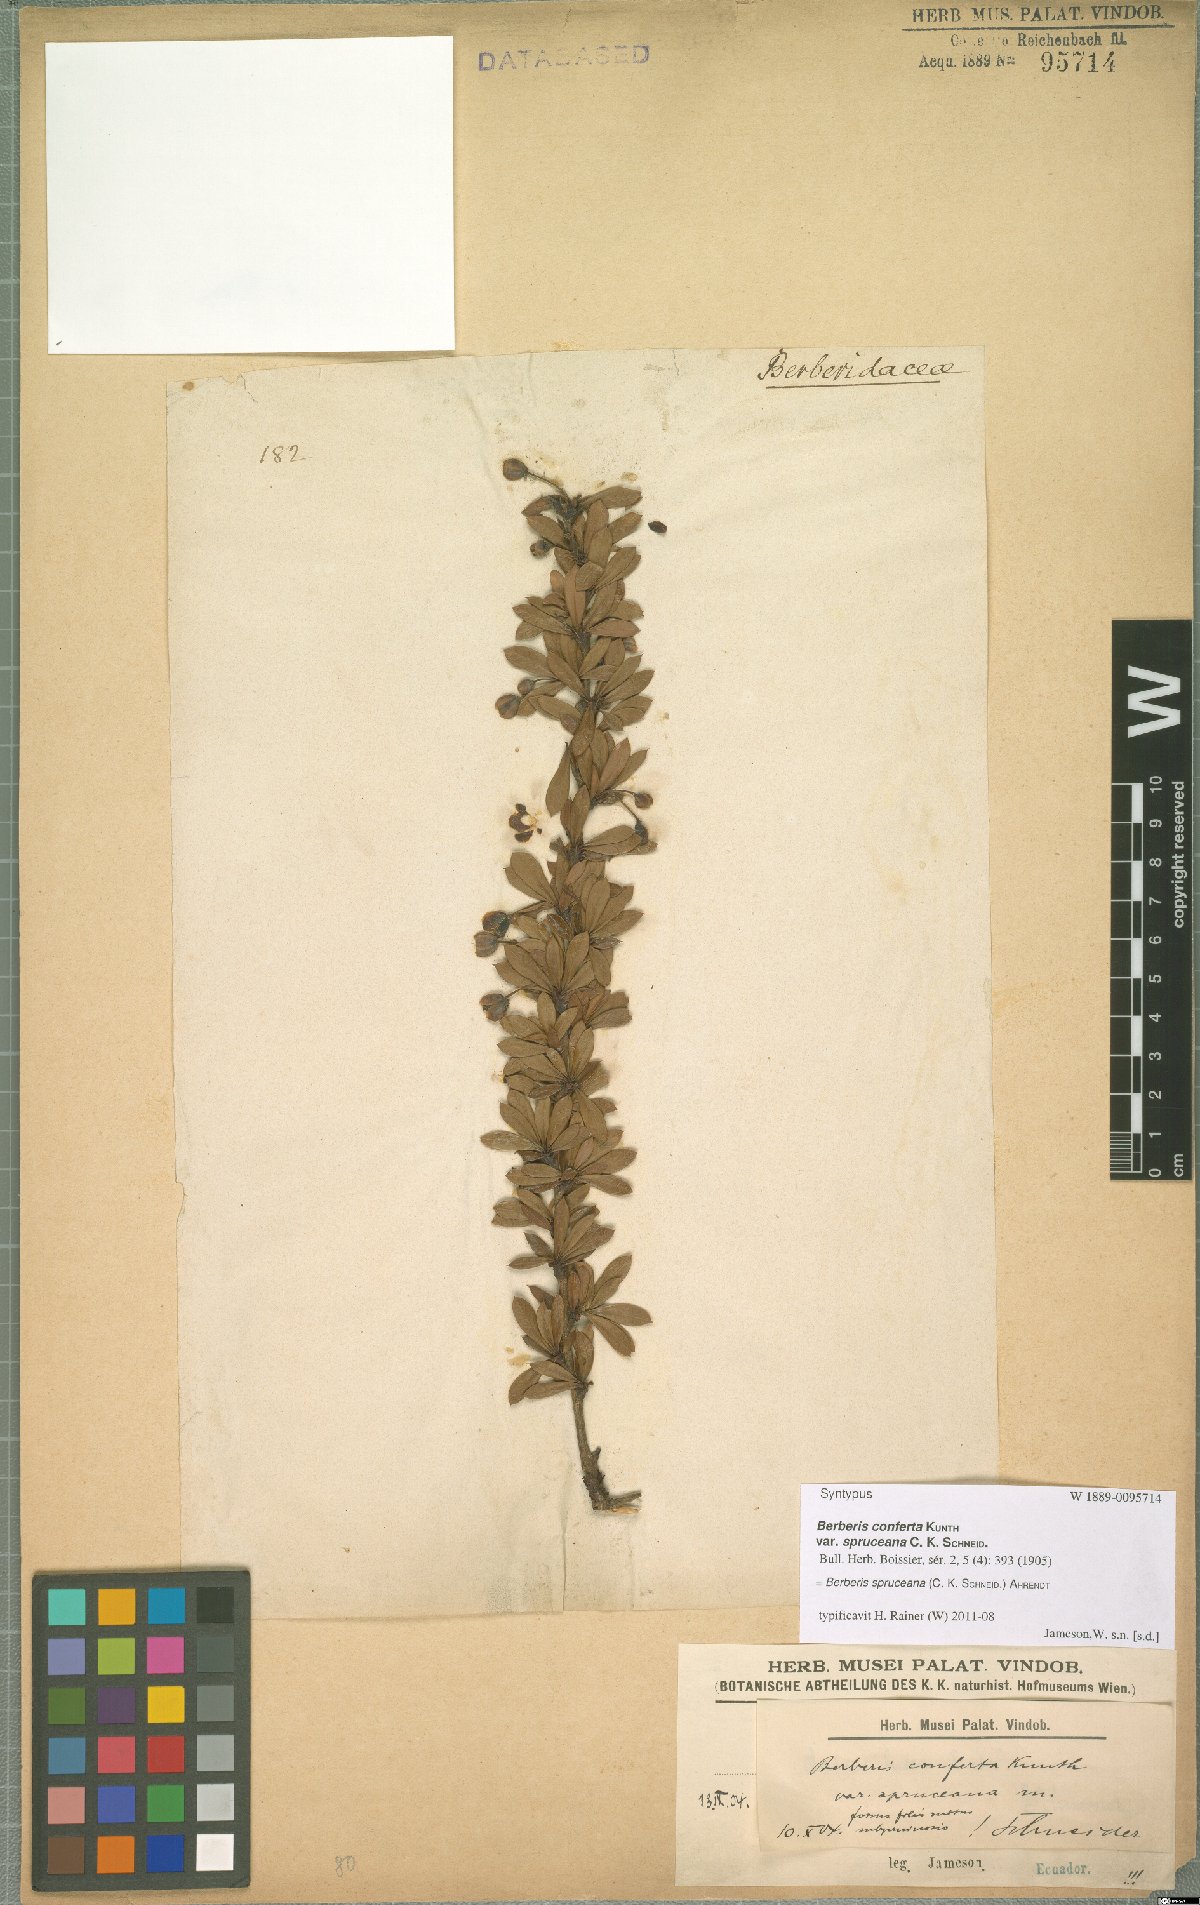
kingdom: Plantae
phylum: Tracheophyta
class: Magnoliopsida
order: Ranunculales
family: Berberidaceae
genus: Berberis
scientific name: Berberis lutea
